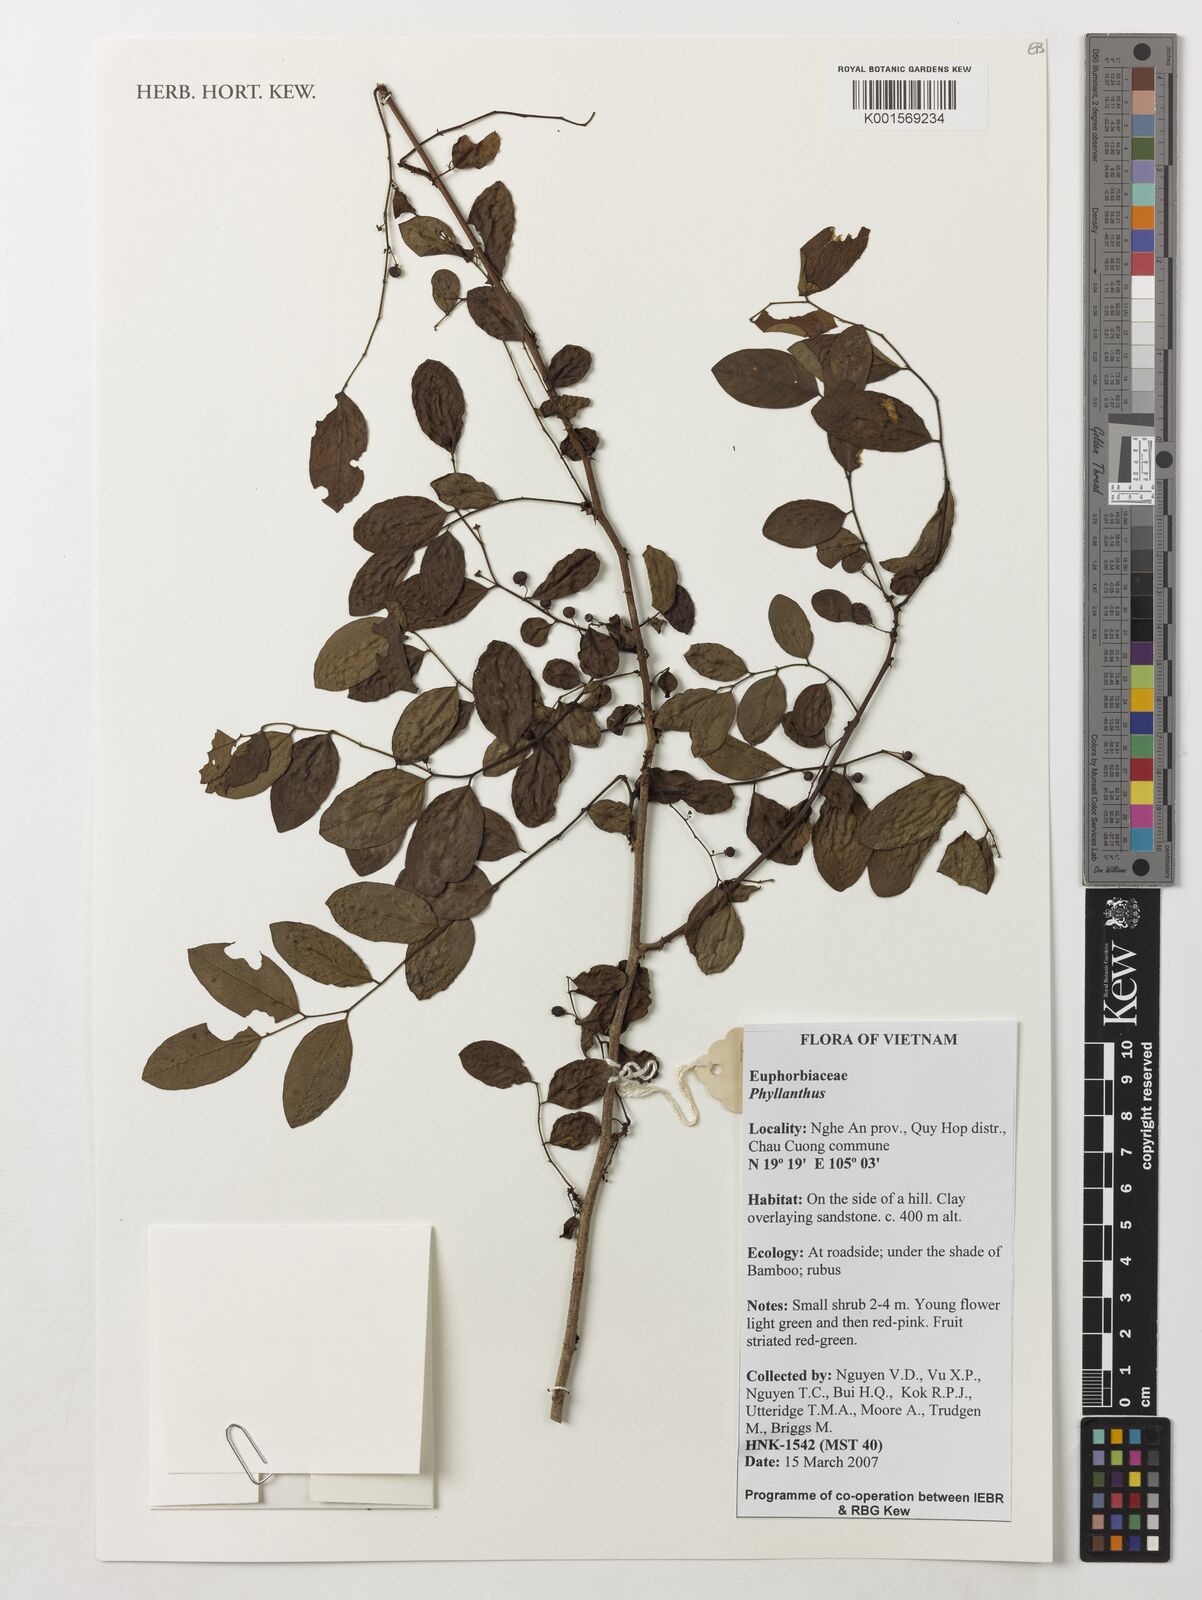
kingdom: Plantae
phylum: Tracheophyta
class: Magnoliopsida
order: Malpighiales
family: Phyllanthaceae
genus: Phyllanthus
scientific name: Phyllanthus
